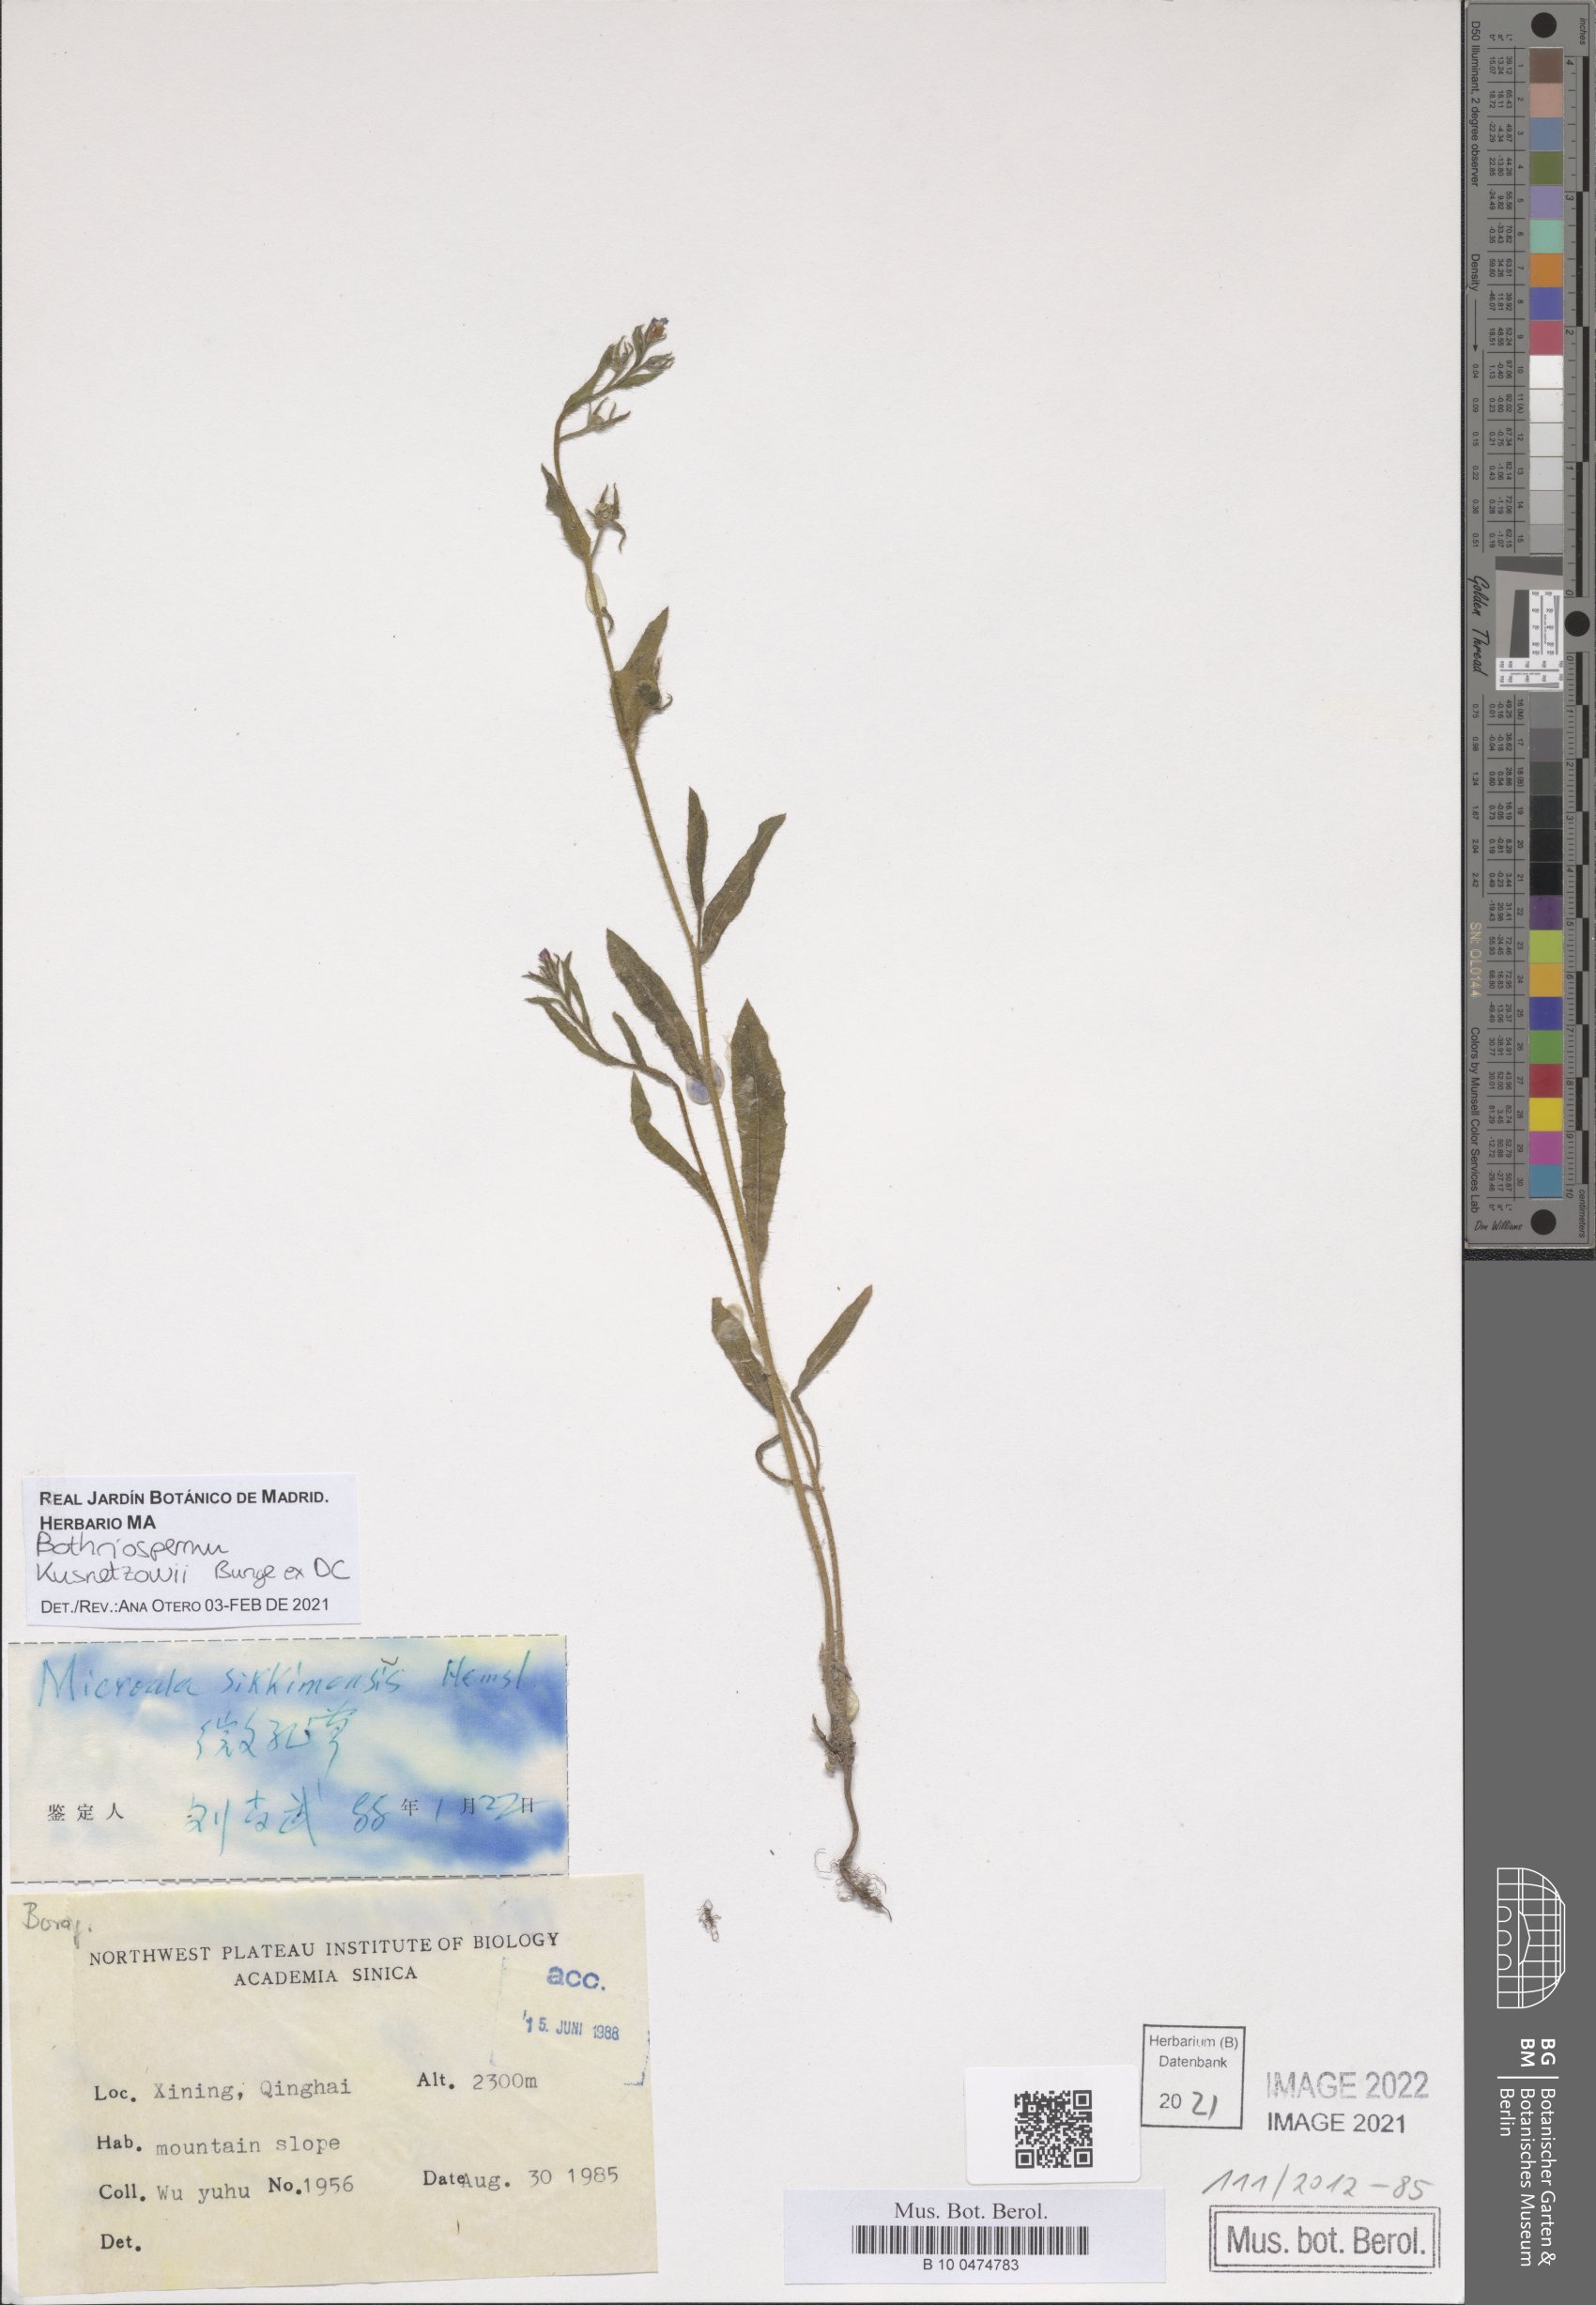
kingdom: Plantae
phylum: Tracheophyta
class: Magnoliopsida
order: Boraginales
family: Boraginaceae
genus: Bothriospermum
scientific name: Bothriospermum kusnetzowii
